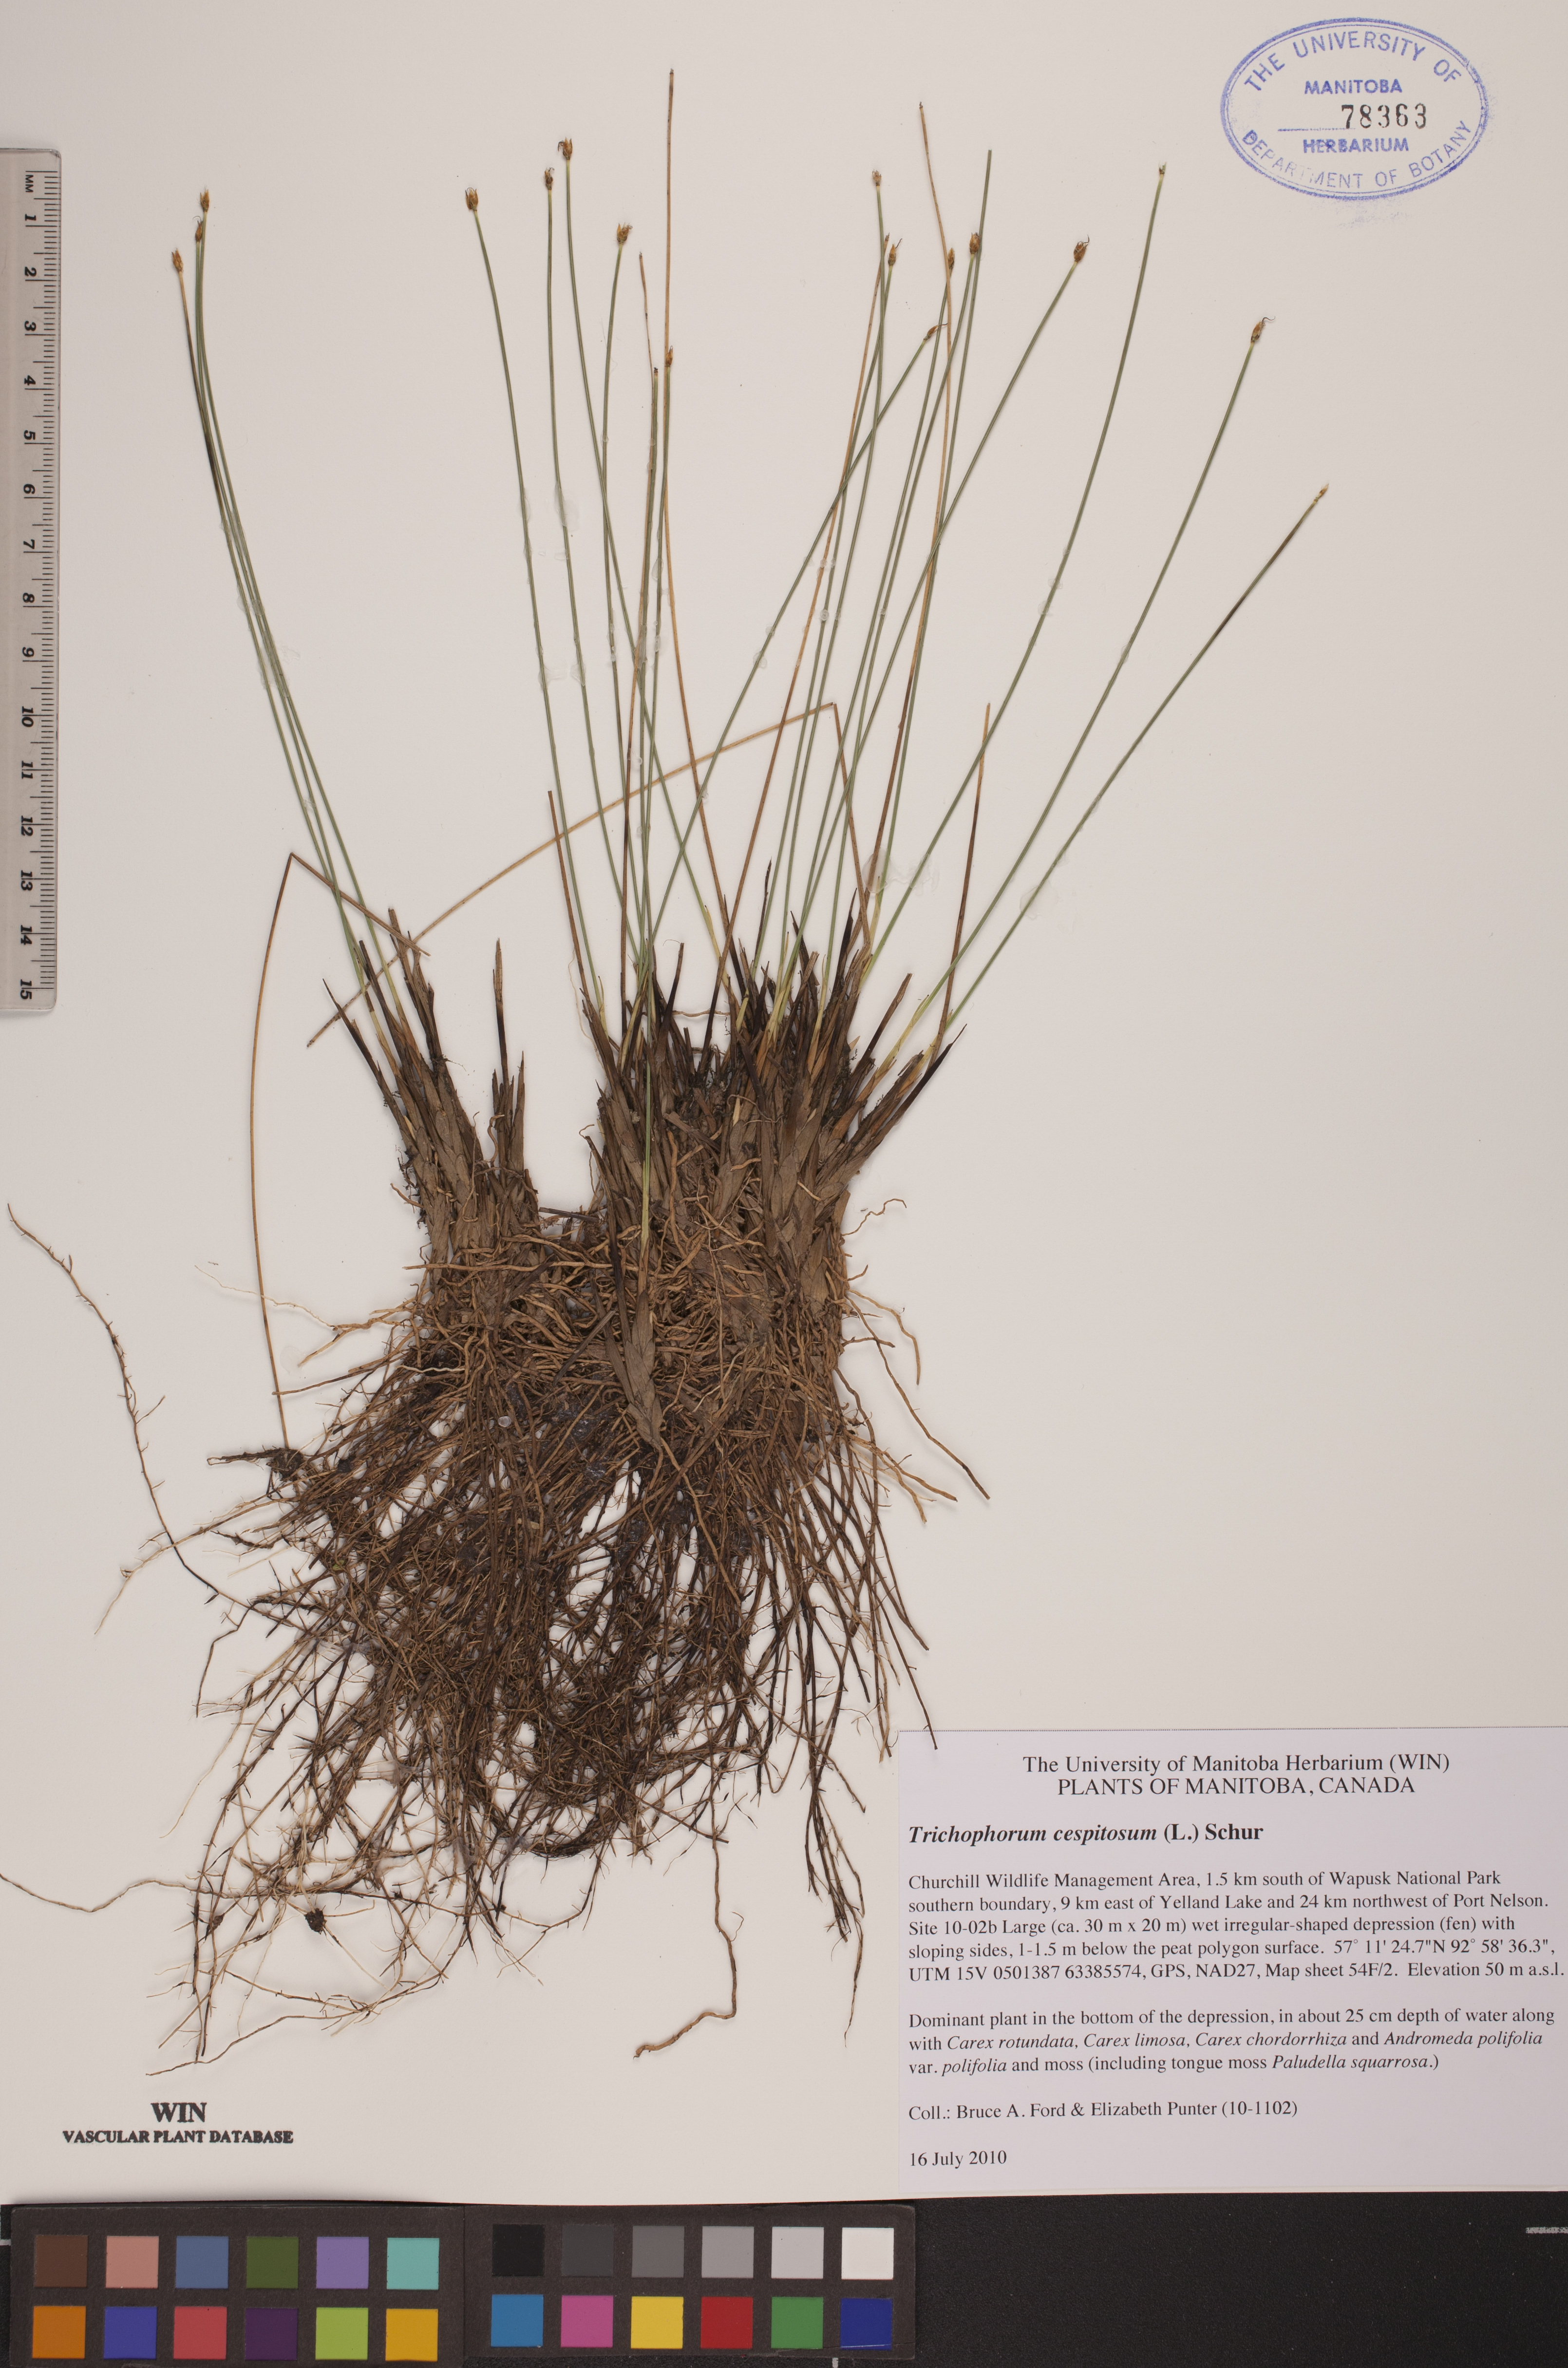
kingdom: Plantae
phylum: Tracheophyta
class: Liliopsida
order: Poales
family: Cyperaceae
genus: Trichophorum
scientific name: Trichophorum cespitosum
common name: Cespitose bulrush
